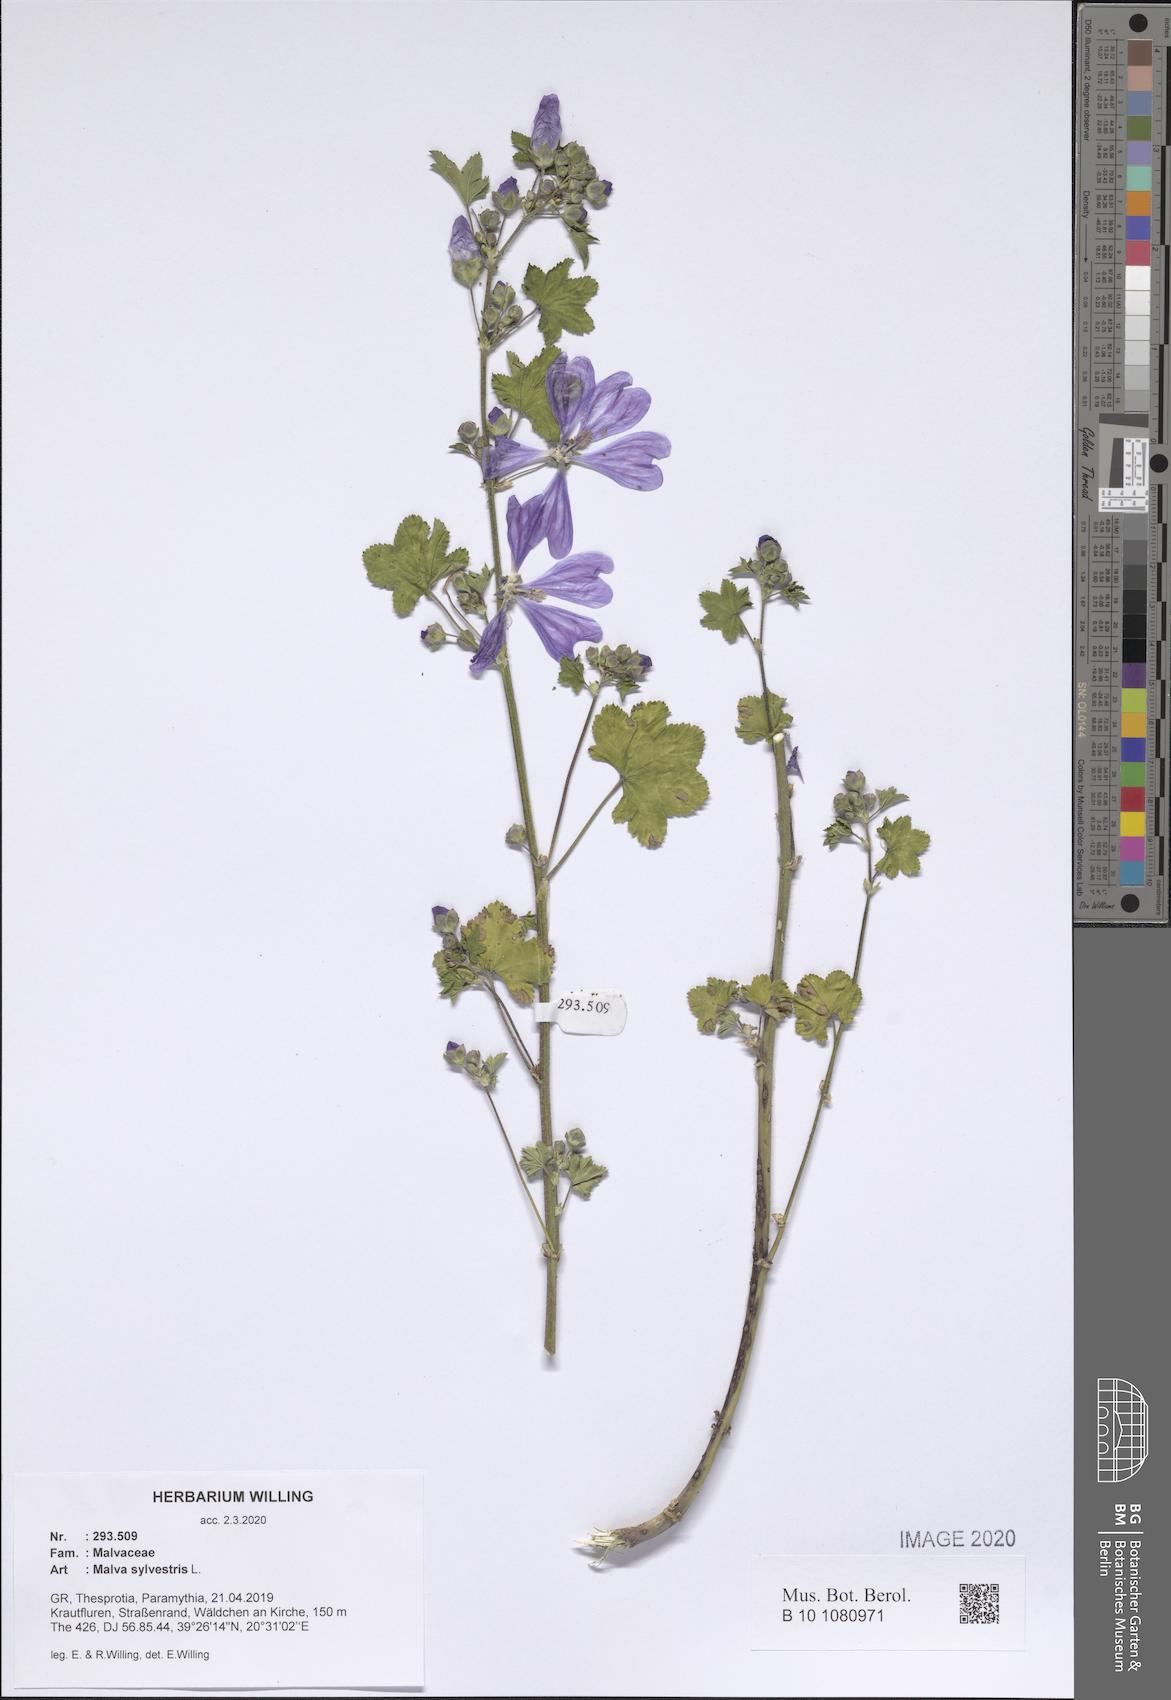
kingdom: Plantae
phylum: Tracheophyta
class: Magnoliopsida
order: Malvales
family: Malvaceae
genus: Malva
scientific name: Malva sylvestris
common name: Common mallow
